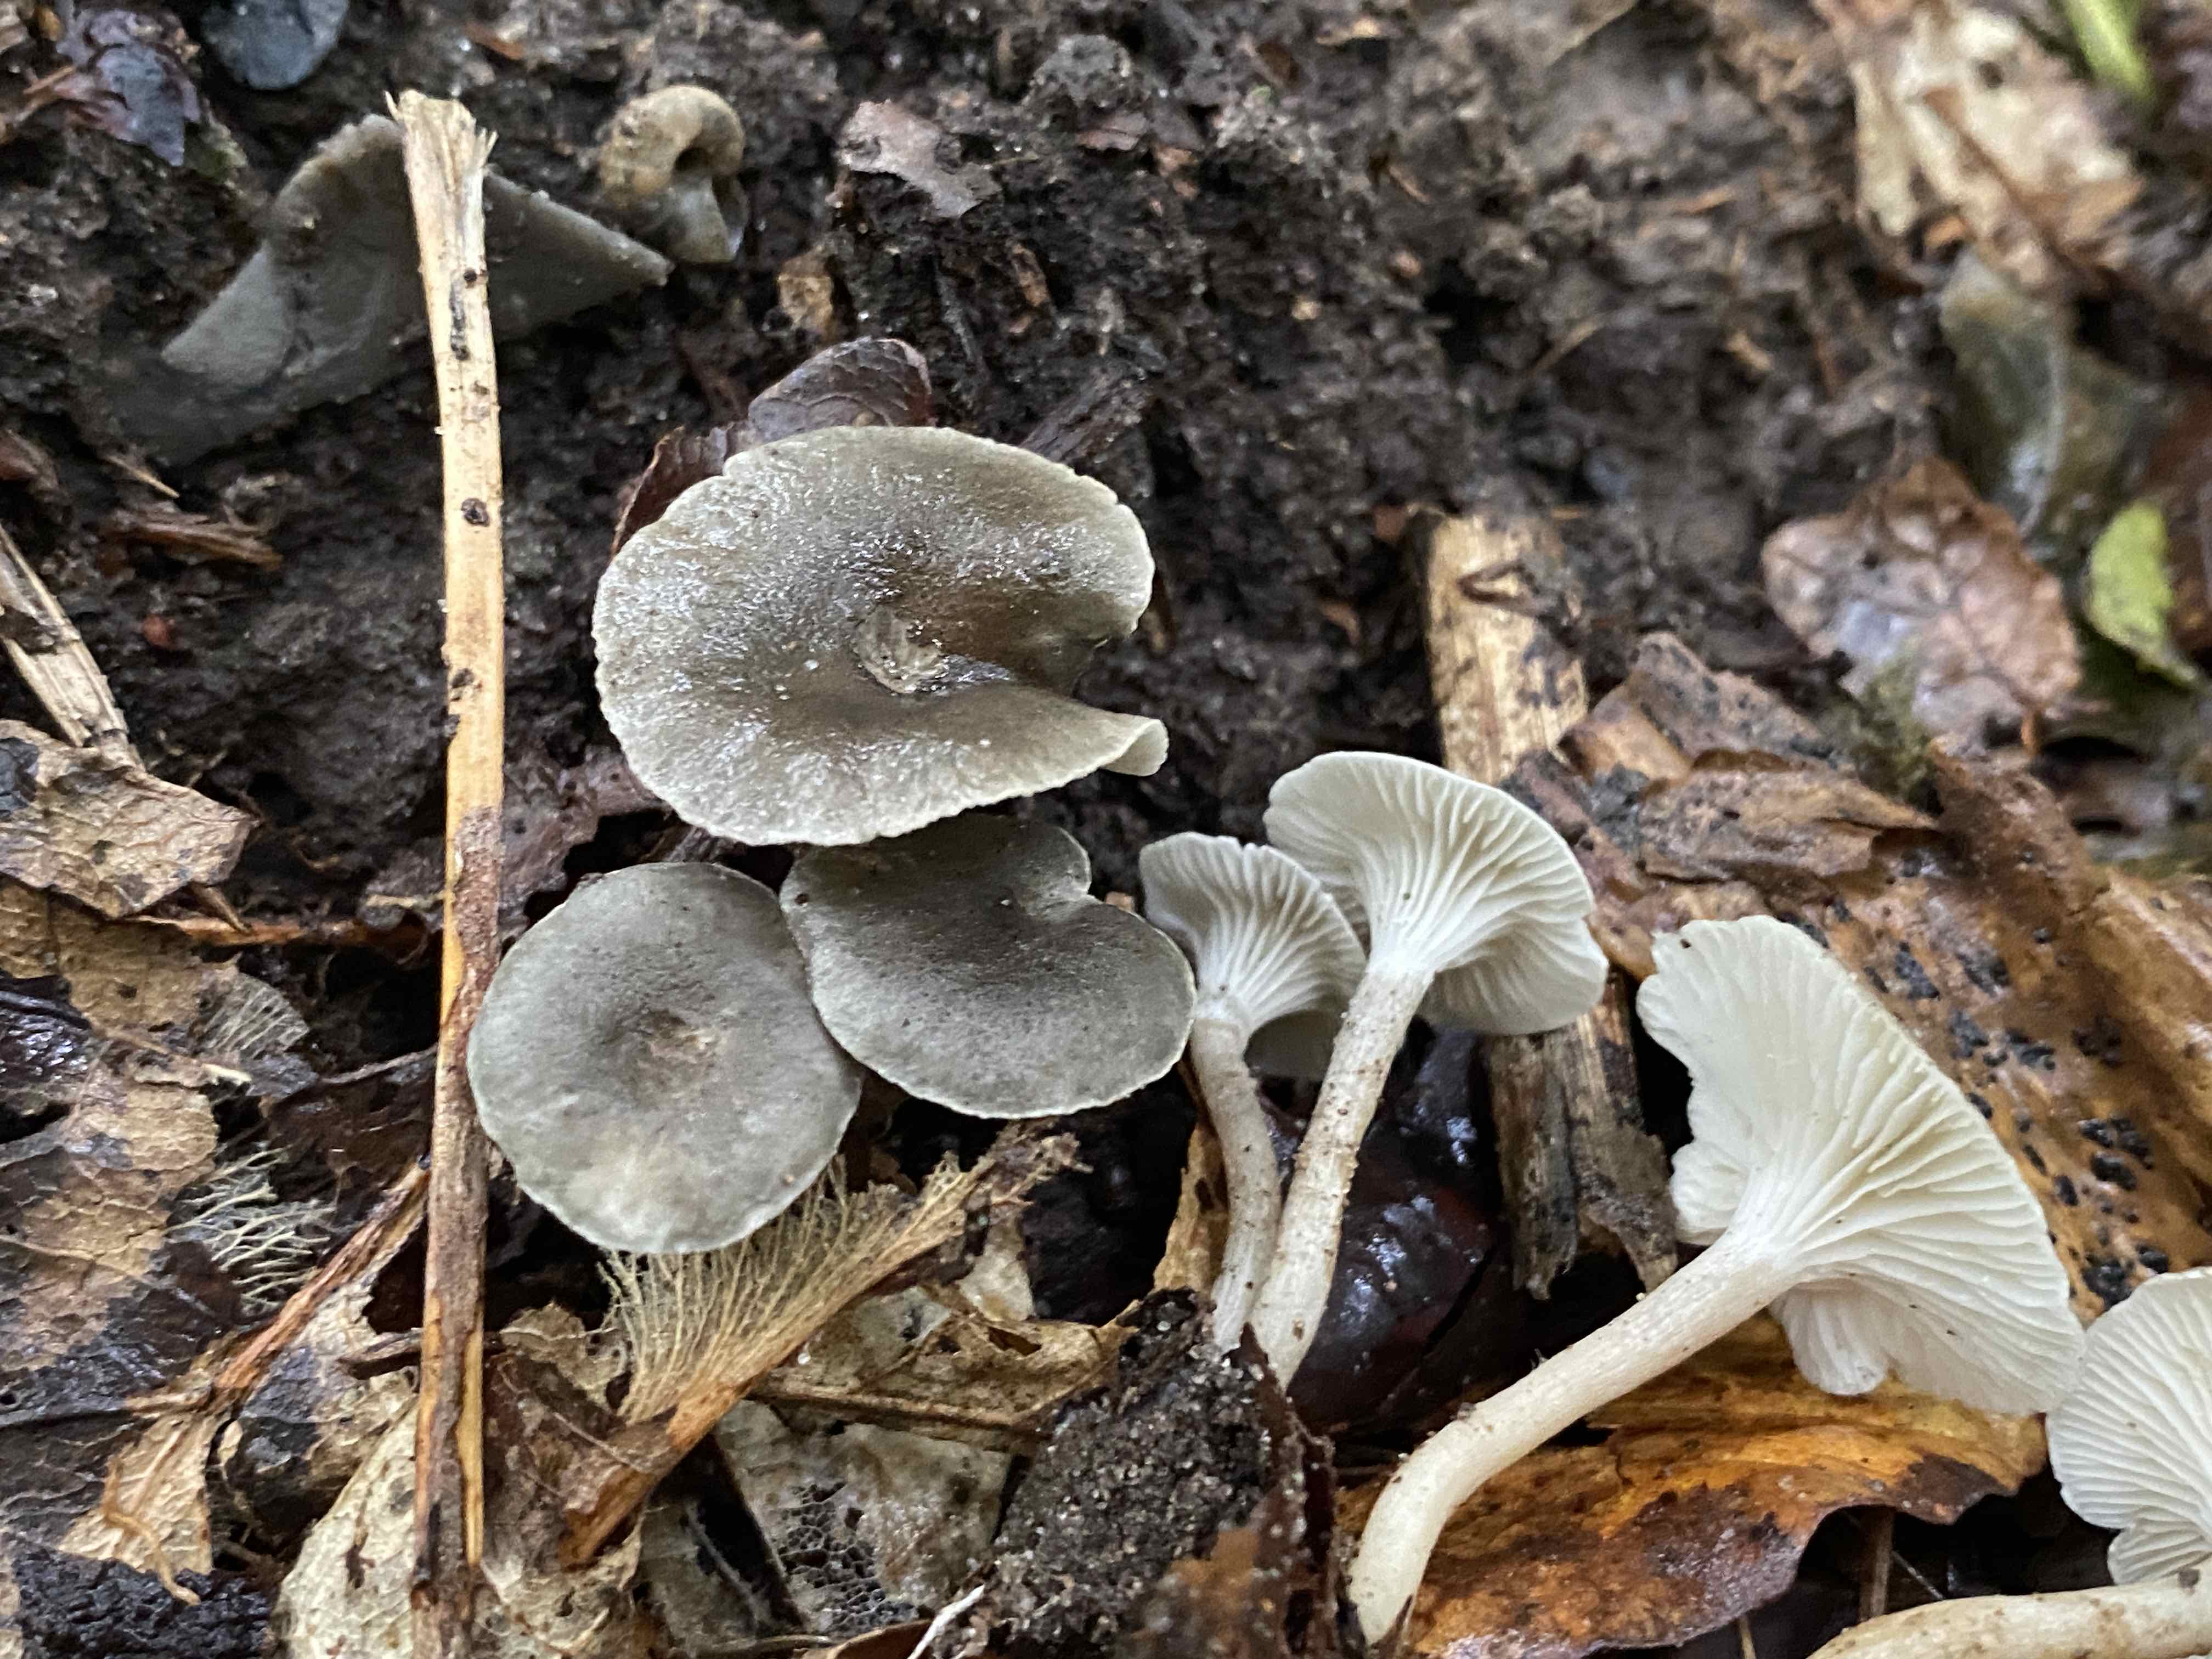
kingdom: Fungi
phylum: Basidiomycota
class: Agaricomycetes
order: Agaricales
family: Hygrophoraceae
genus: Spodocybe
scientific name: Spodocybe trulliformis
